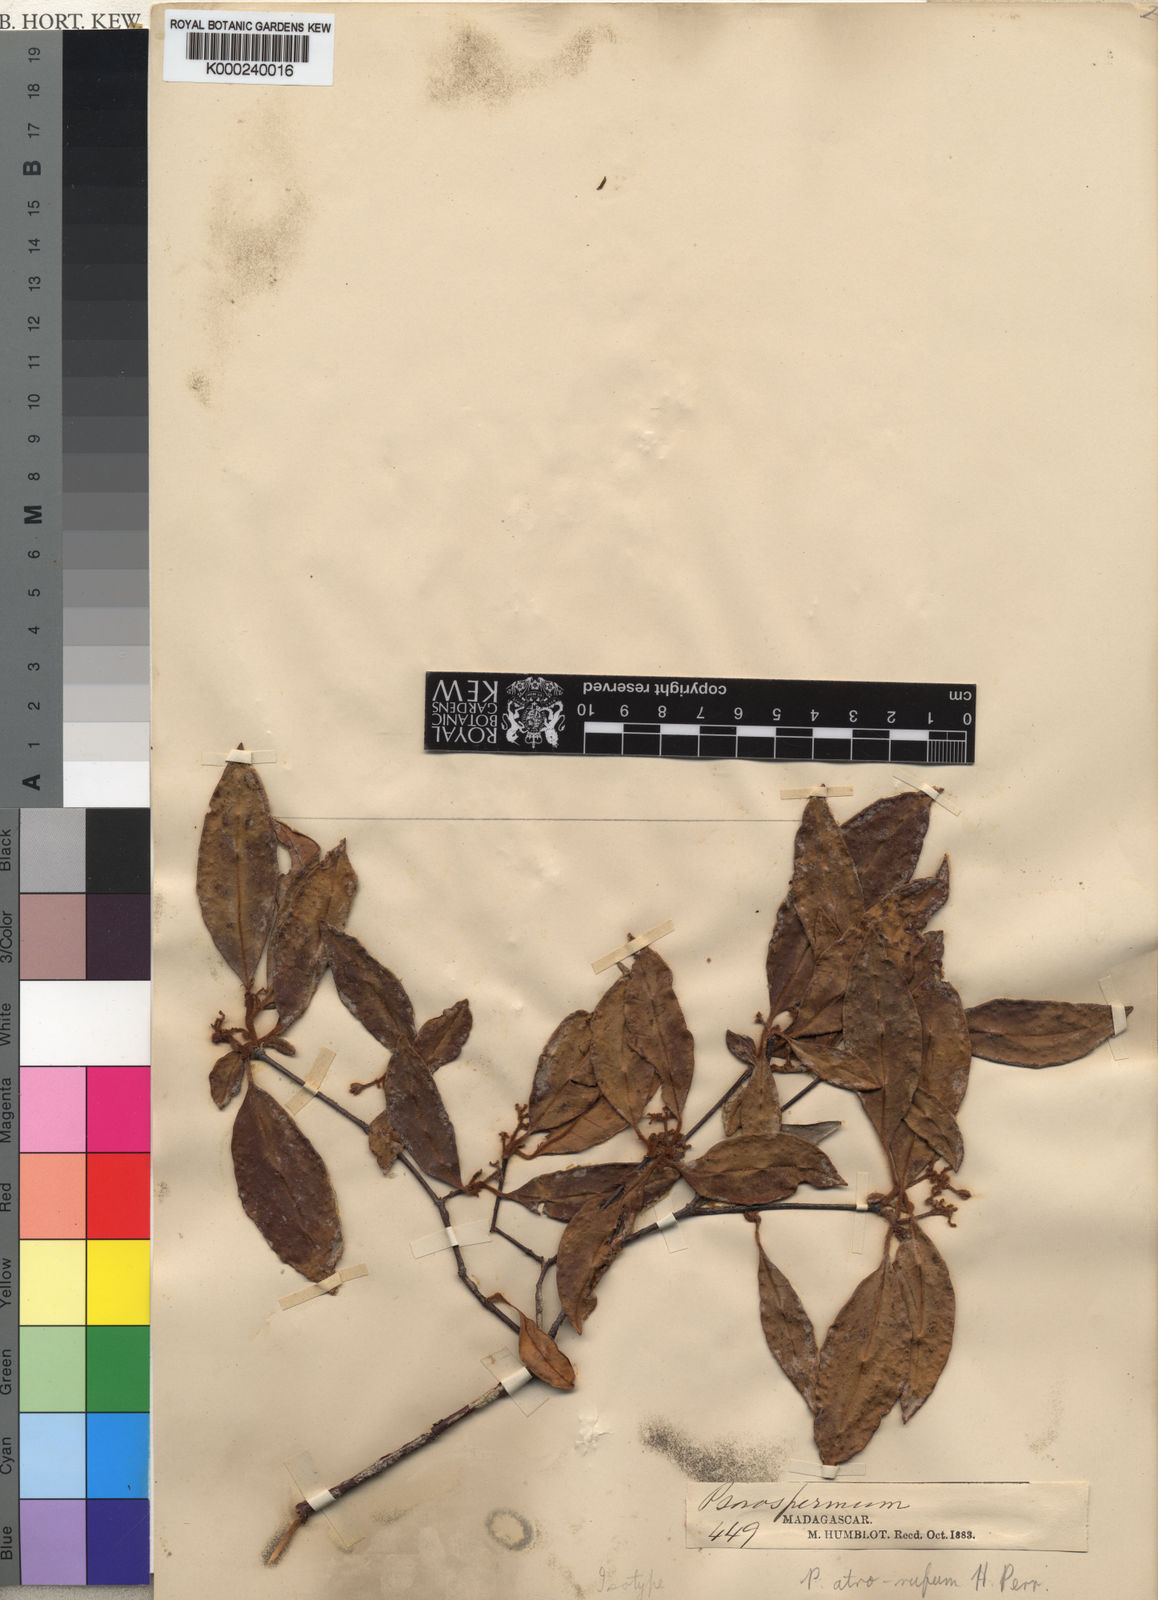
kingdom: Plantae
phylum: Tracheophyta
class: Magnoliopsida
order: Malpighiales
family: Hypericaceae
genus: Psorospermum
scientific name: Psorospermum atrorufum
